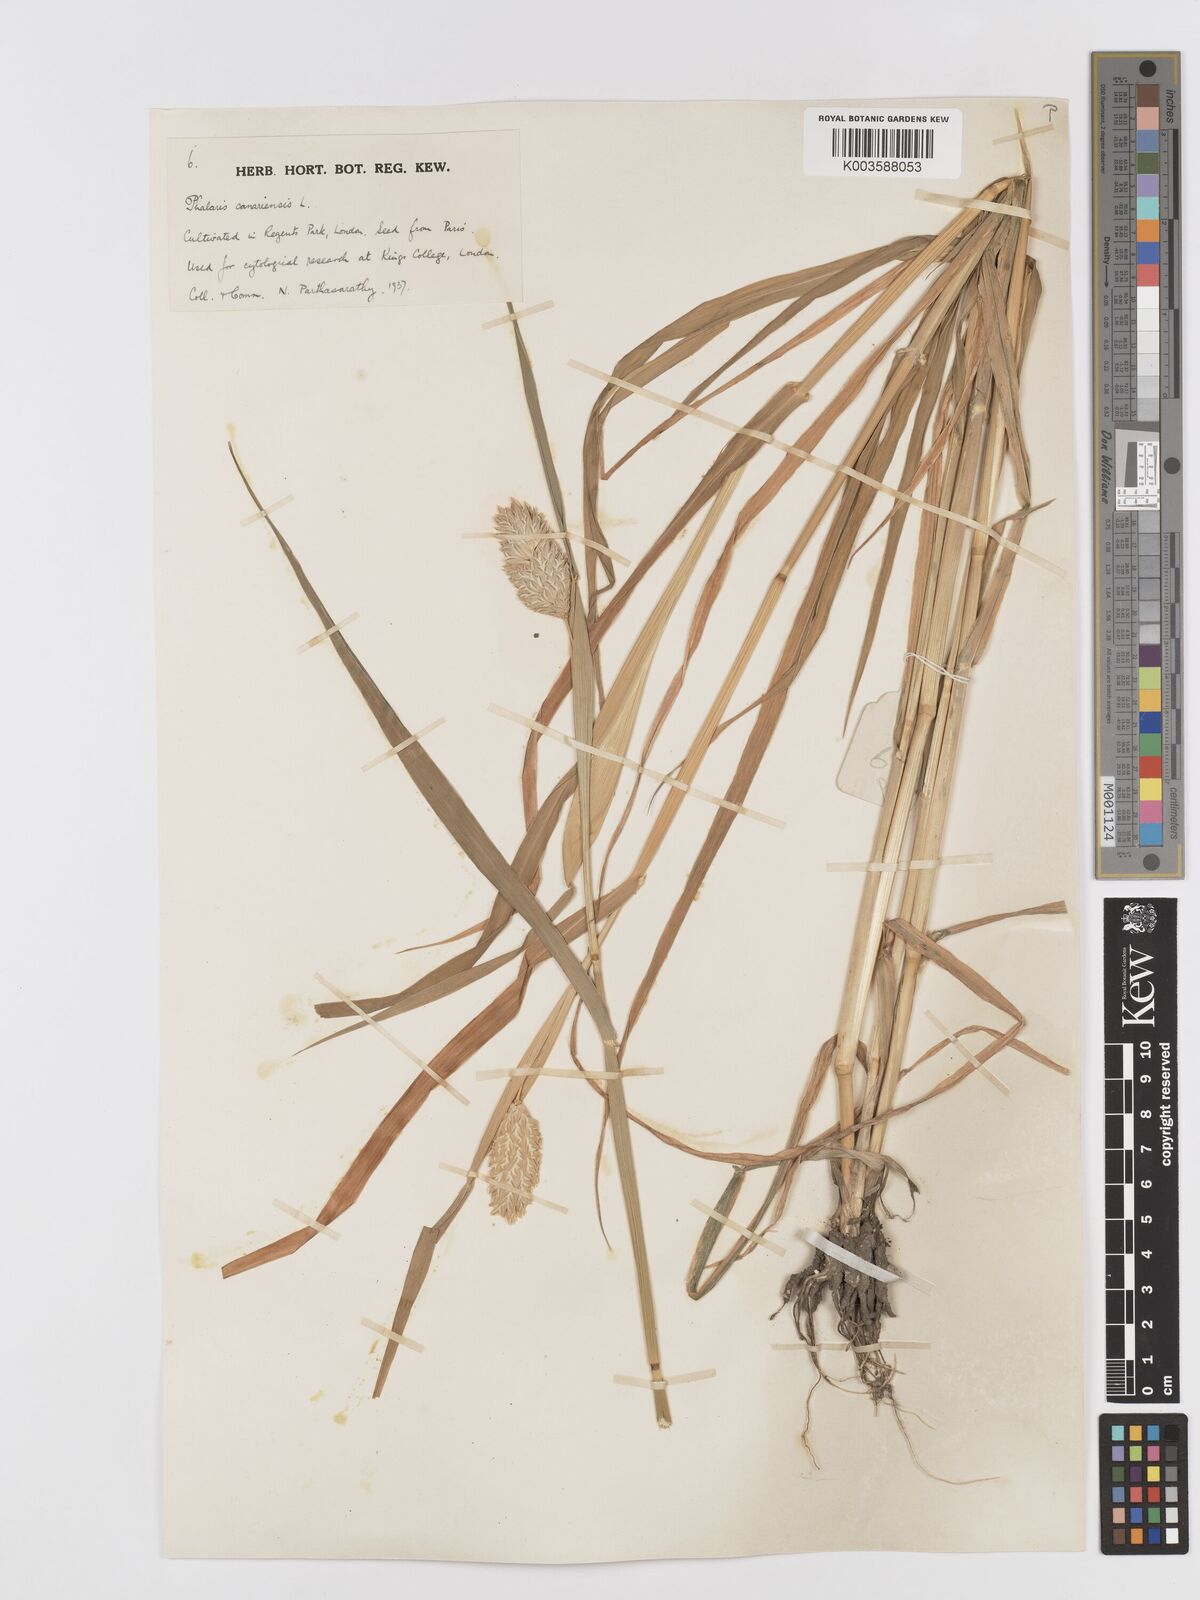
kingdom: Plantae
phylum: Tracheophyta
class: Liliopsida
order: Poales
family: Poaceae
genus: Phalaris
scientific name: Phalaris canariensis
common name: Annual canarygrass
